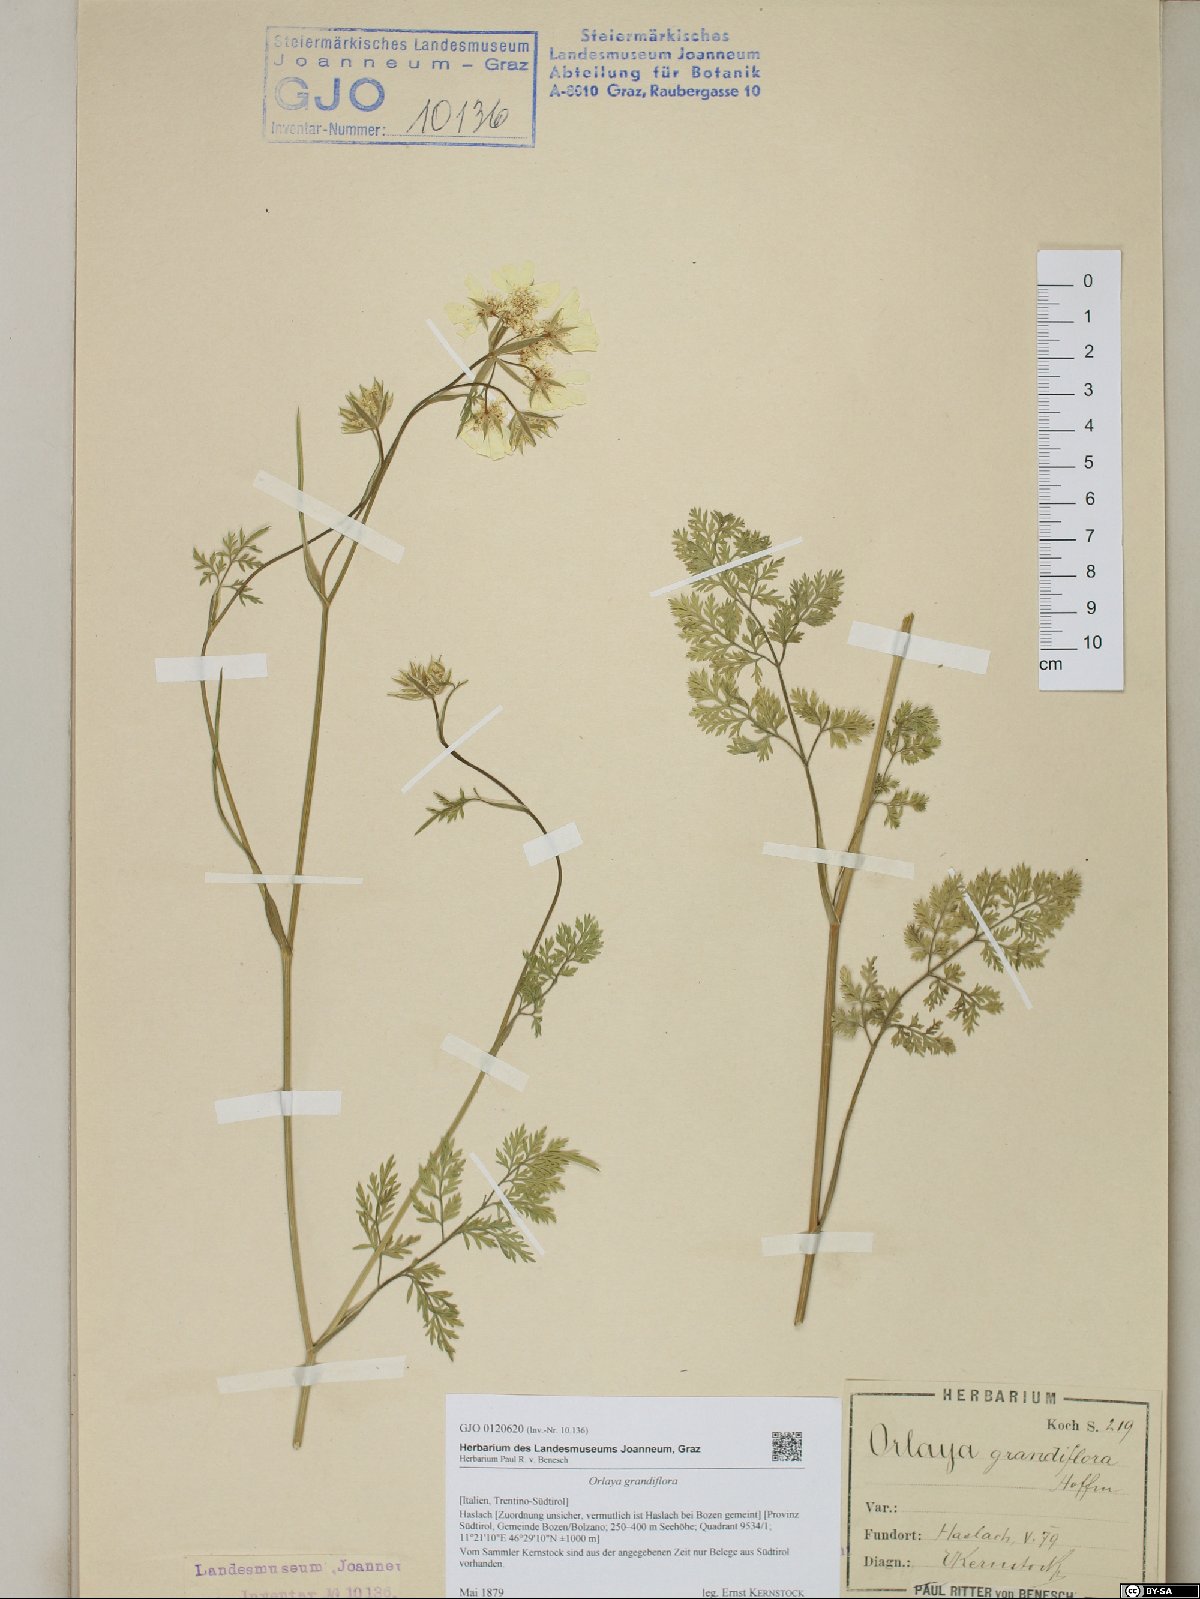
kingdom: Plantae
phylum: Tracheophyta
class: Magnoliopsida
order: Apiales
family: Apiaceae
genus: Orlaya
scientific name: Orlaya grandiflora
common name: White lace flower
